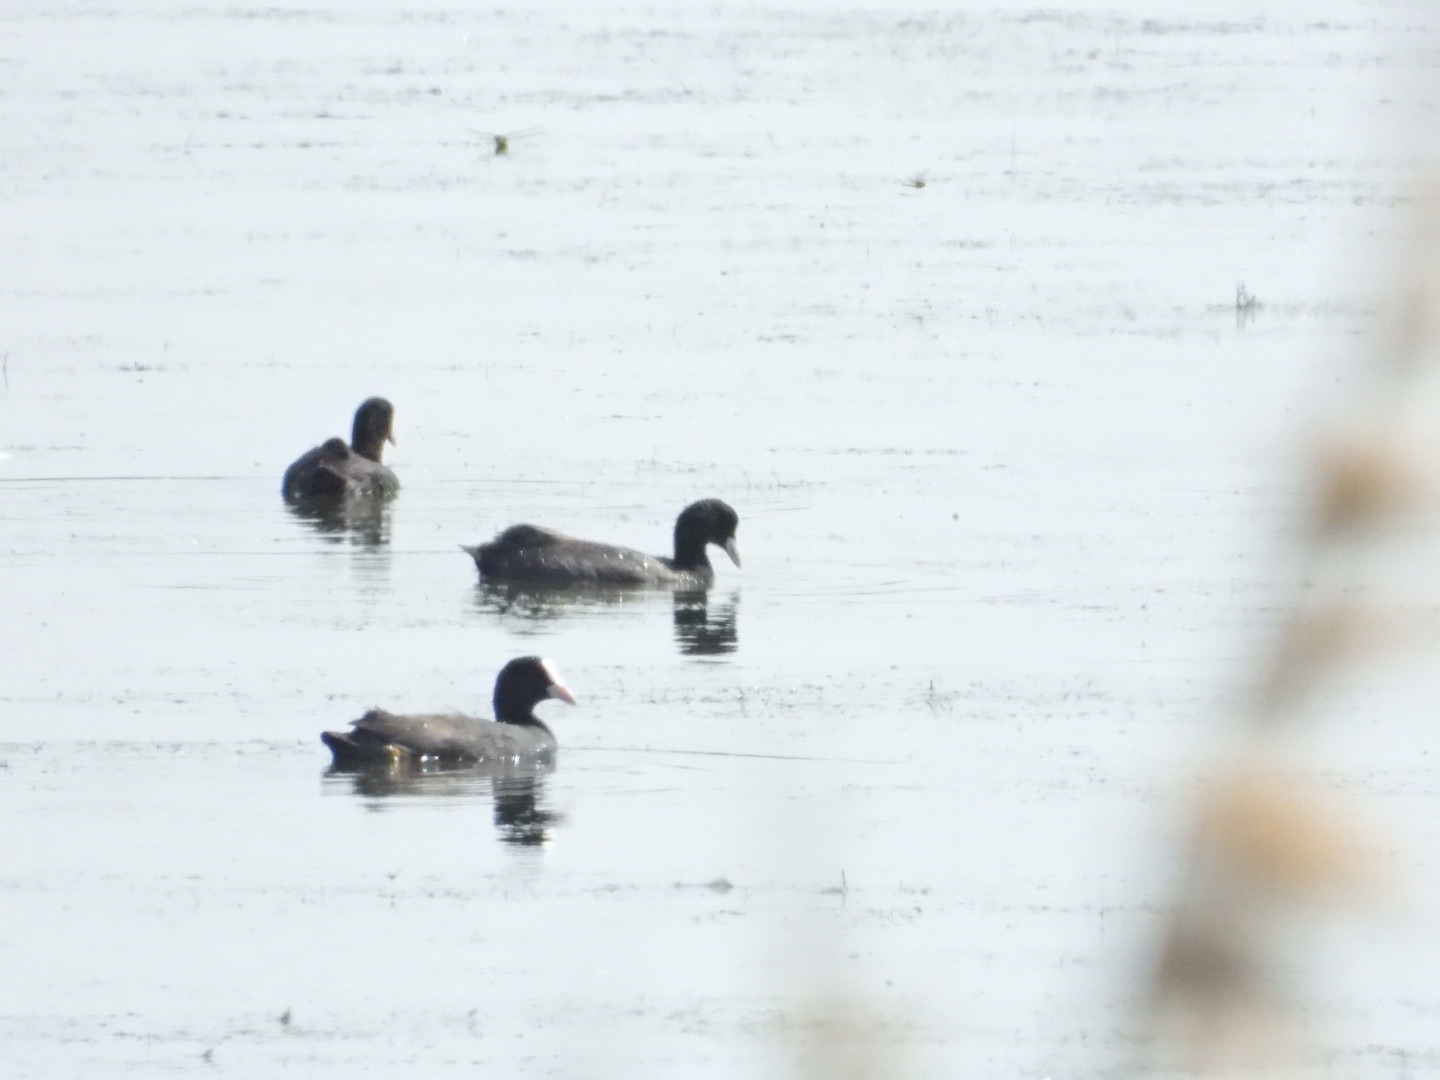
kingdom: Animalia
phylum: Chordata
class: Aves
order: Gruiformes
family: Rallidae
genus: Fulica
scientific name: Fulica atra
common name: Blishøne
